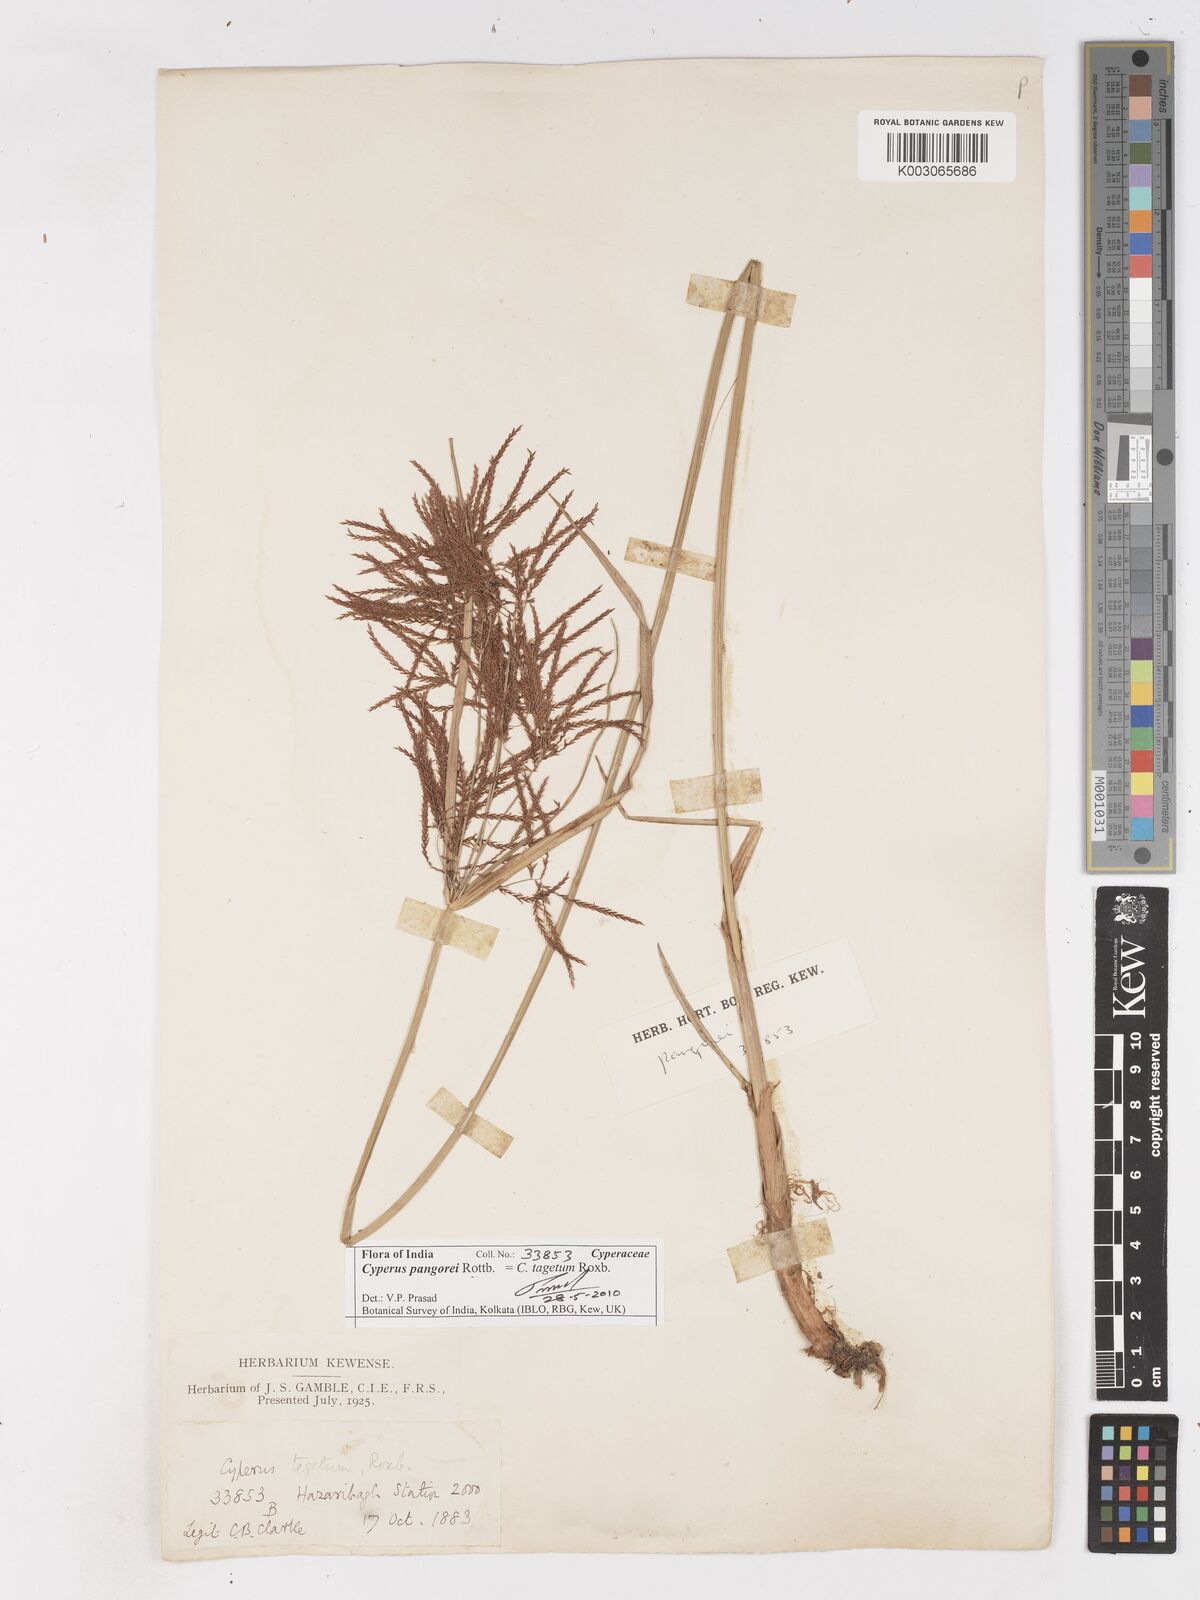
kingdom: Plantae
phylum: Tracheophyta
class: Liliopsida
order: Poales
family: Cyperaceae
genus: Cyperus
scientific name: Cyperus pangorei
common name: Mat sedge
